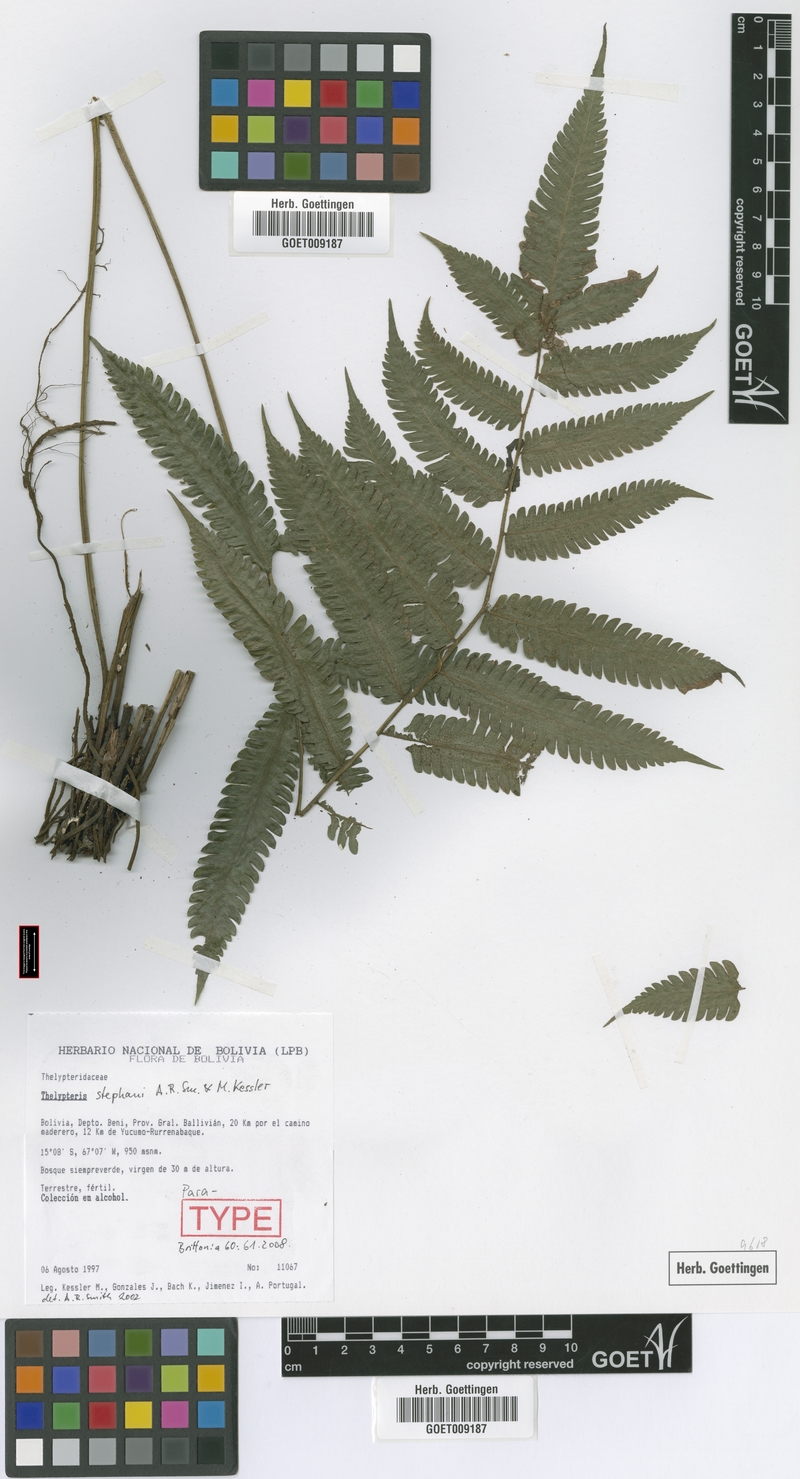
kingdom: Plantae
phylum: Tracheophyta
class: Polypodiopsida
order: Polypodiales
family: Thelypteridaceae
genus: Goniopteris
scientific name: Goniopteris stephanii
